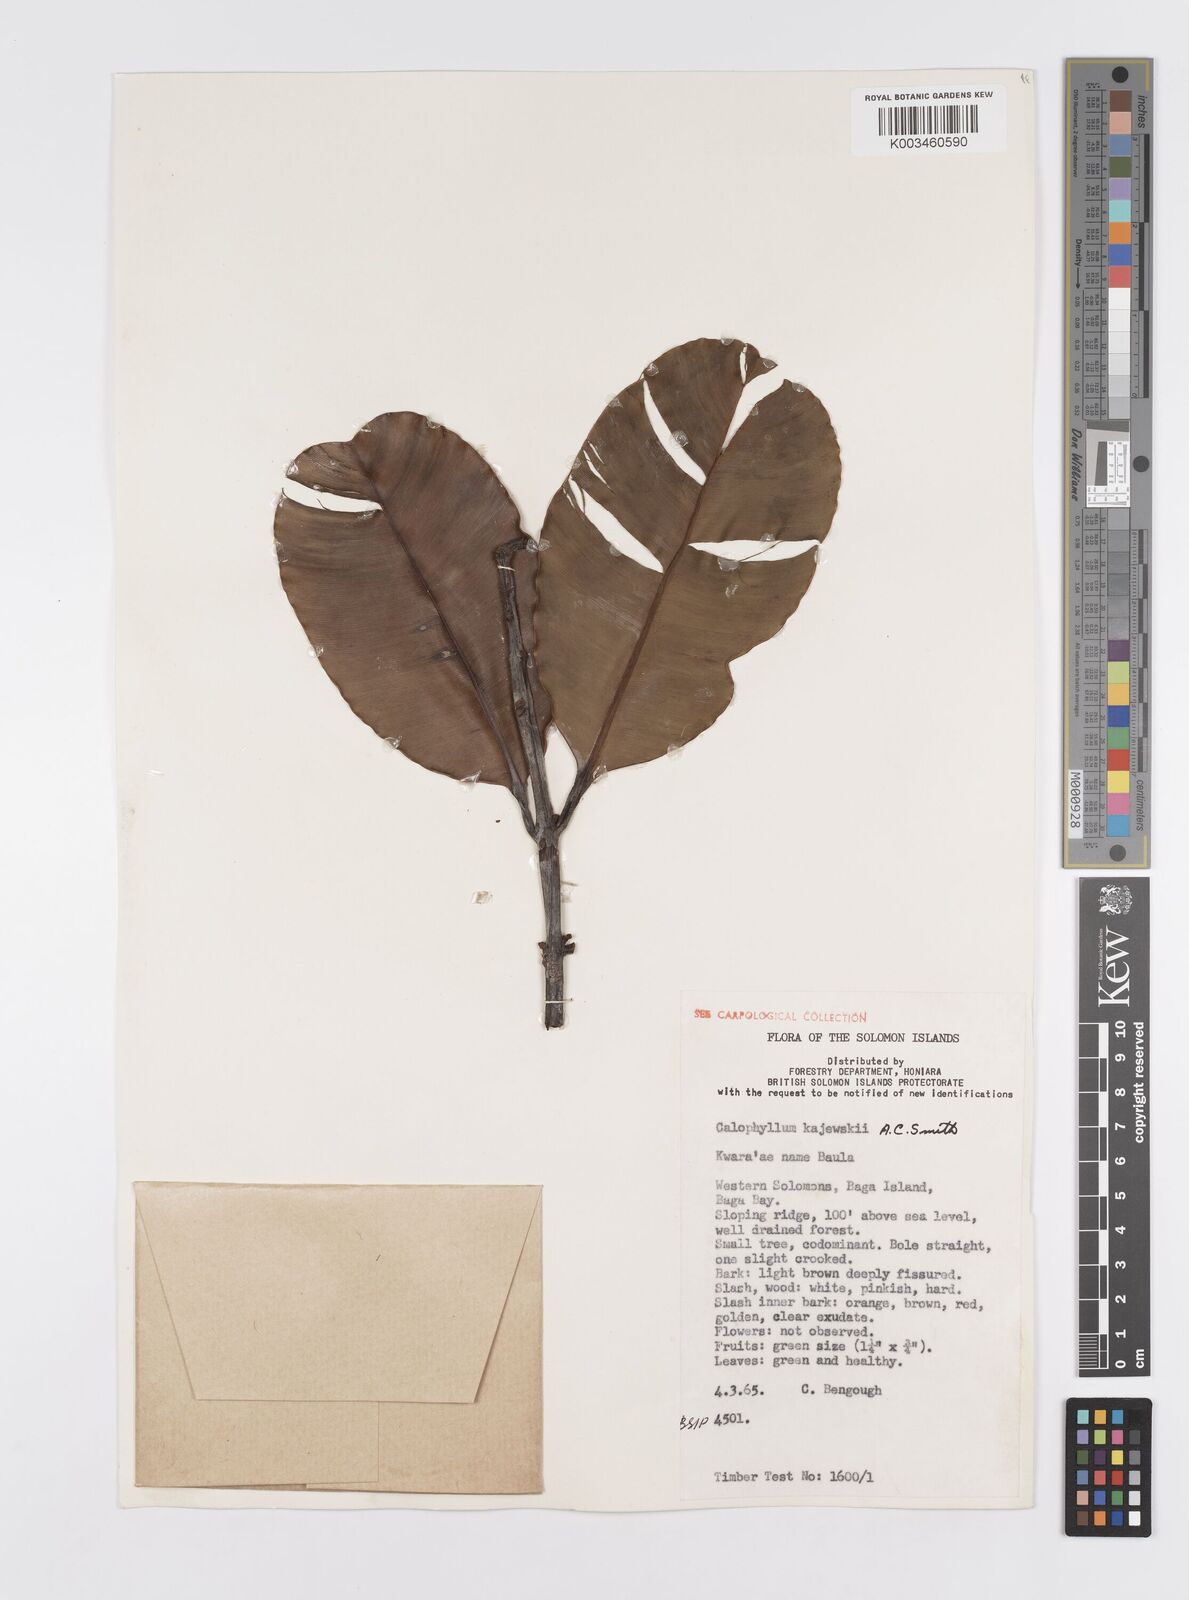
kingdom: Plantae
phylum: Tracheophyta
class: Magnoliopsida
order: Malpighiales
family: Calophyllaceae
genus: Calophyllum
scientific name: Calophyllum peekelii
